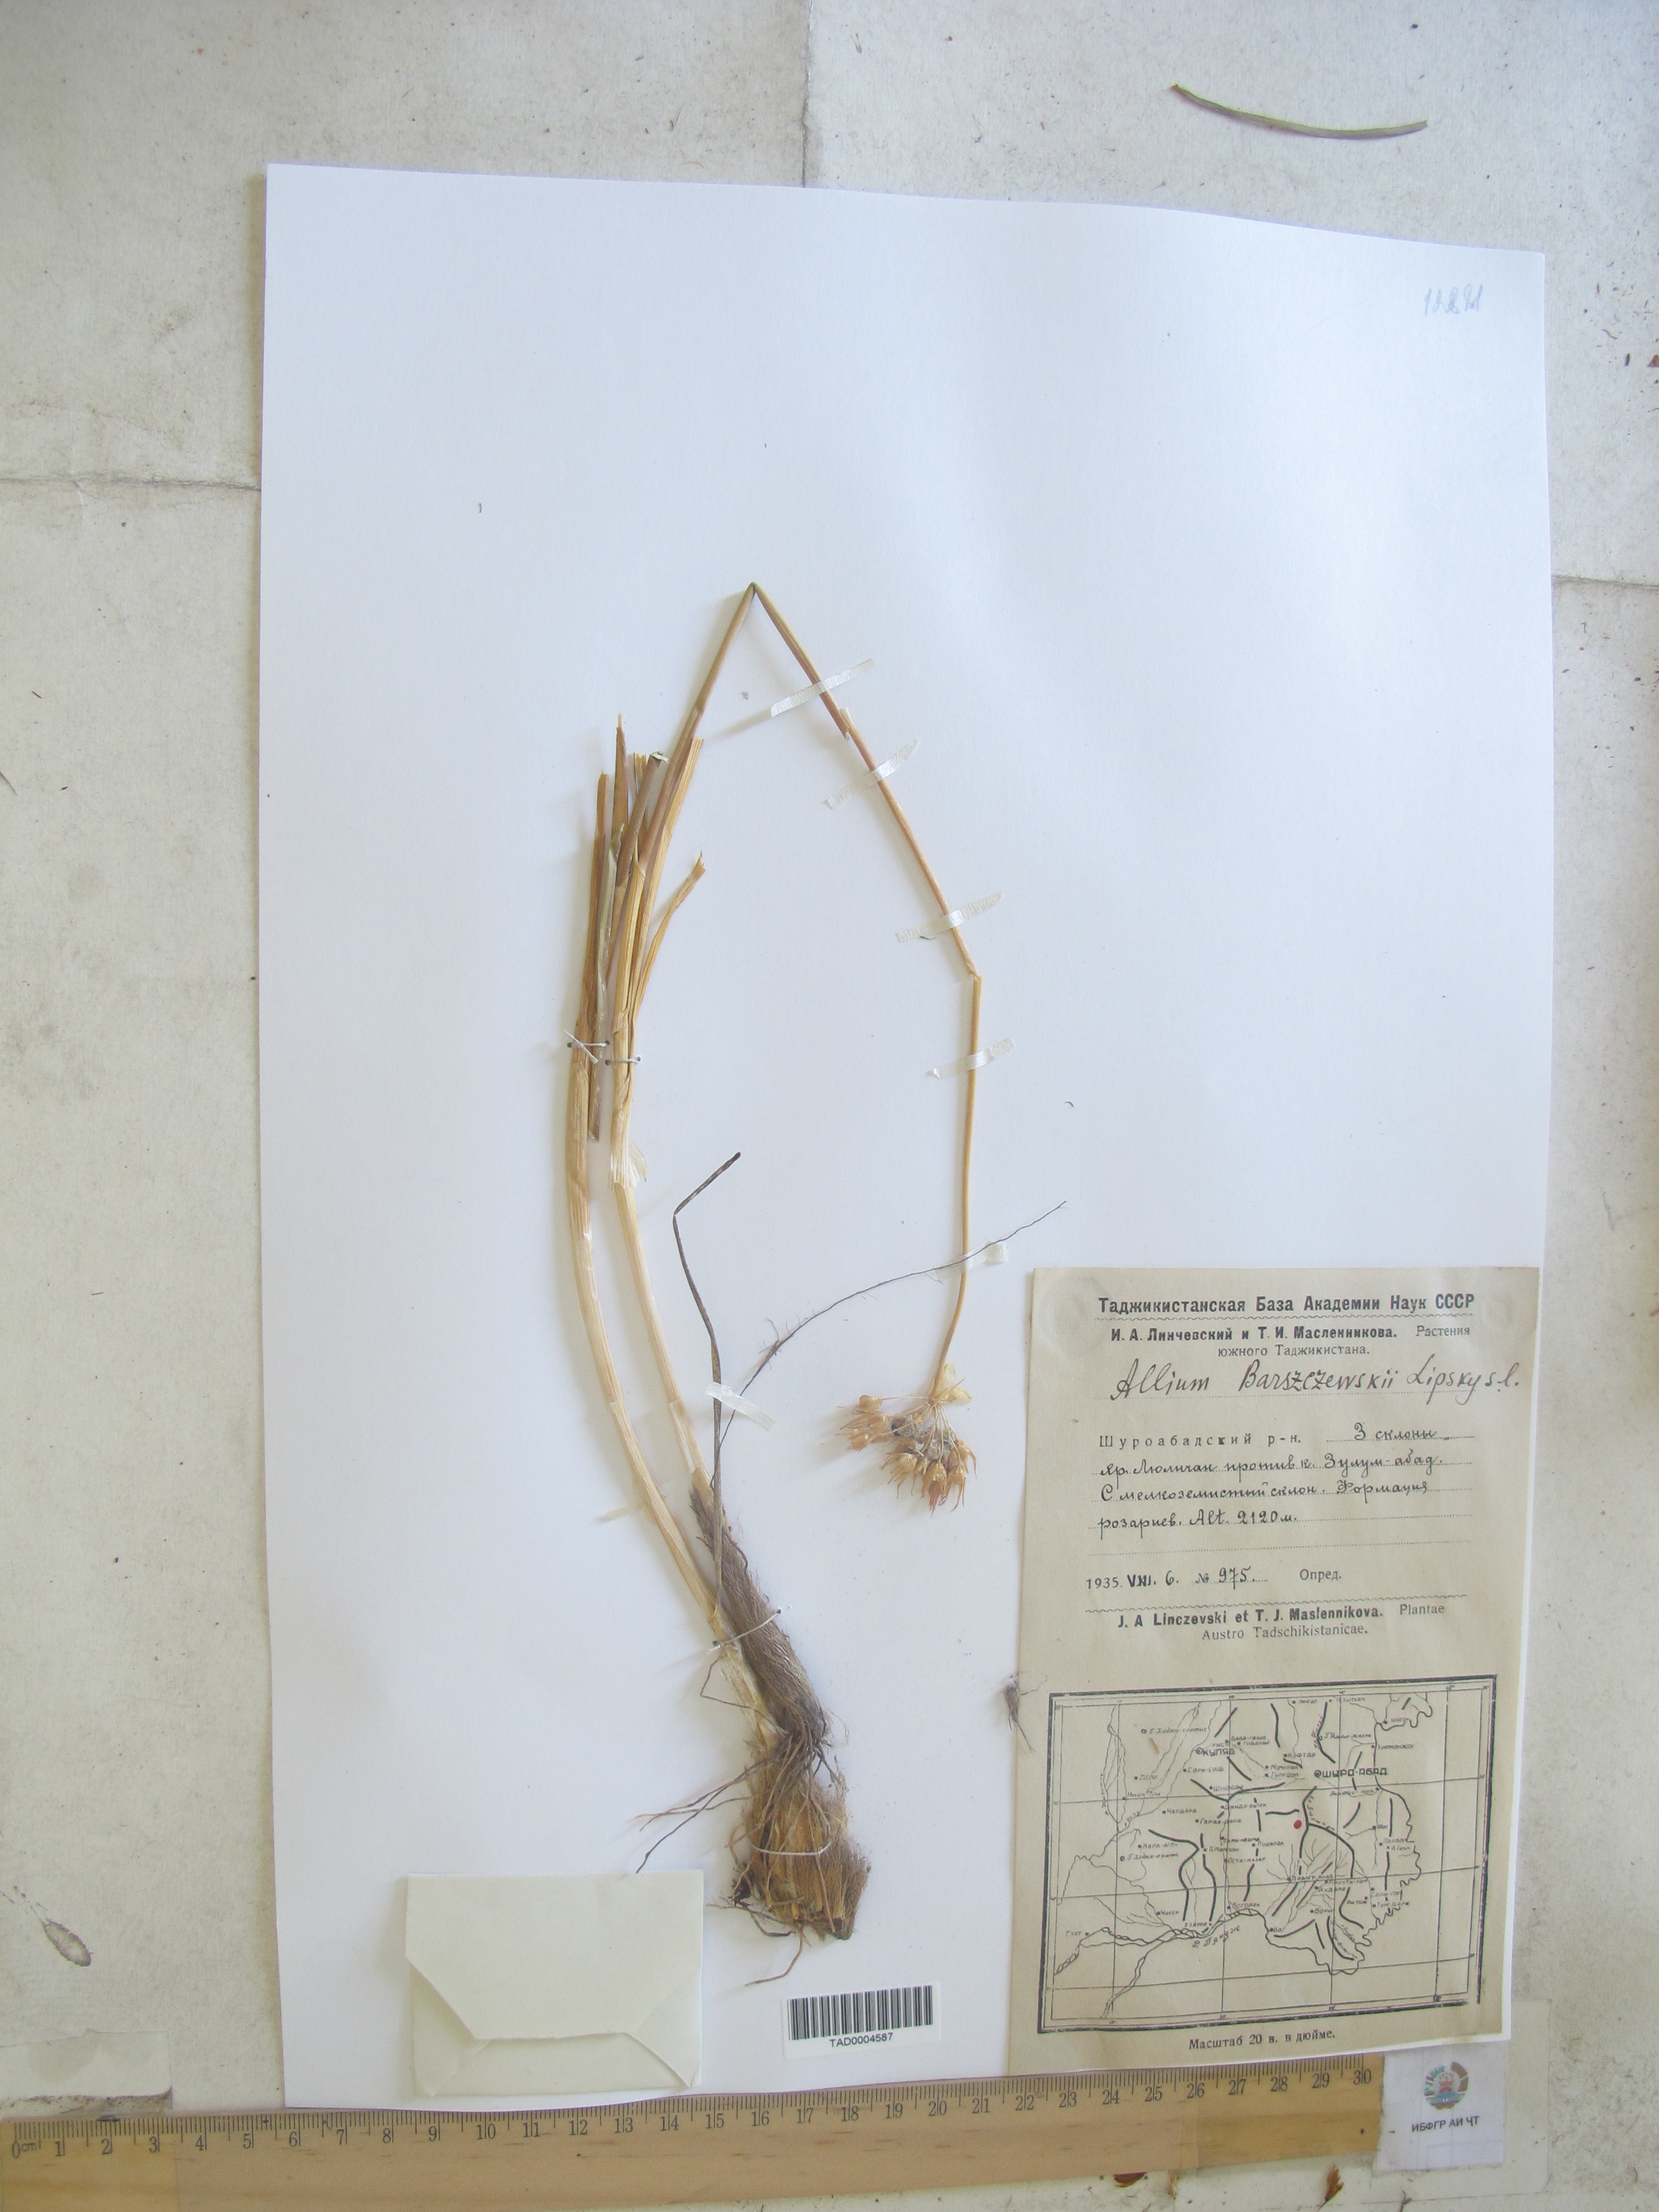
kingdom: Plantae
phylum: Tracheophyta
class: Liliopsida
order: Asparagales
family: Amaryllidaceae
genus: Allium
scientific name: Allium barsczewskii
